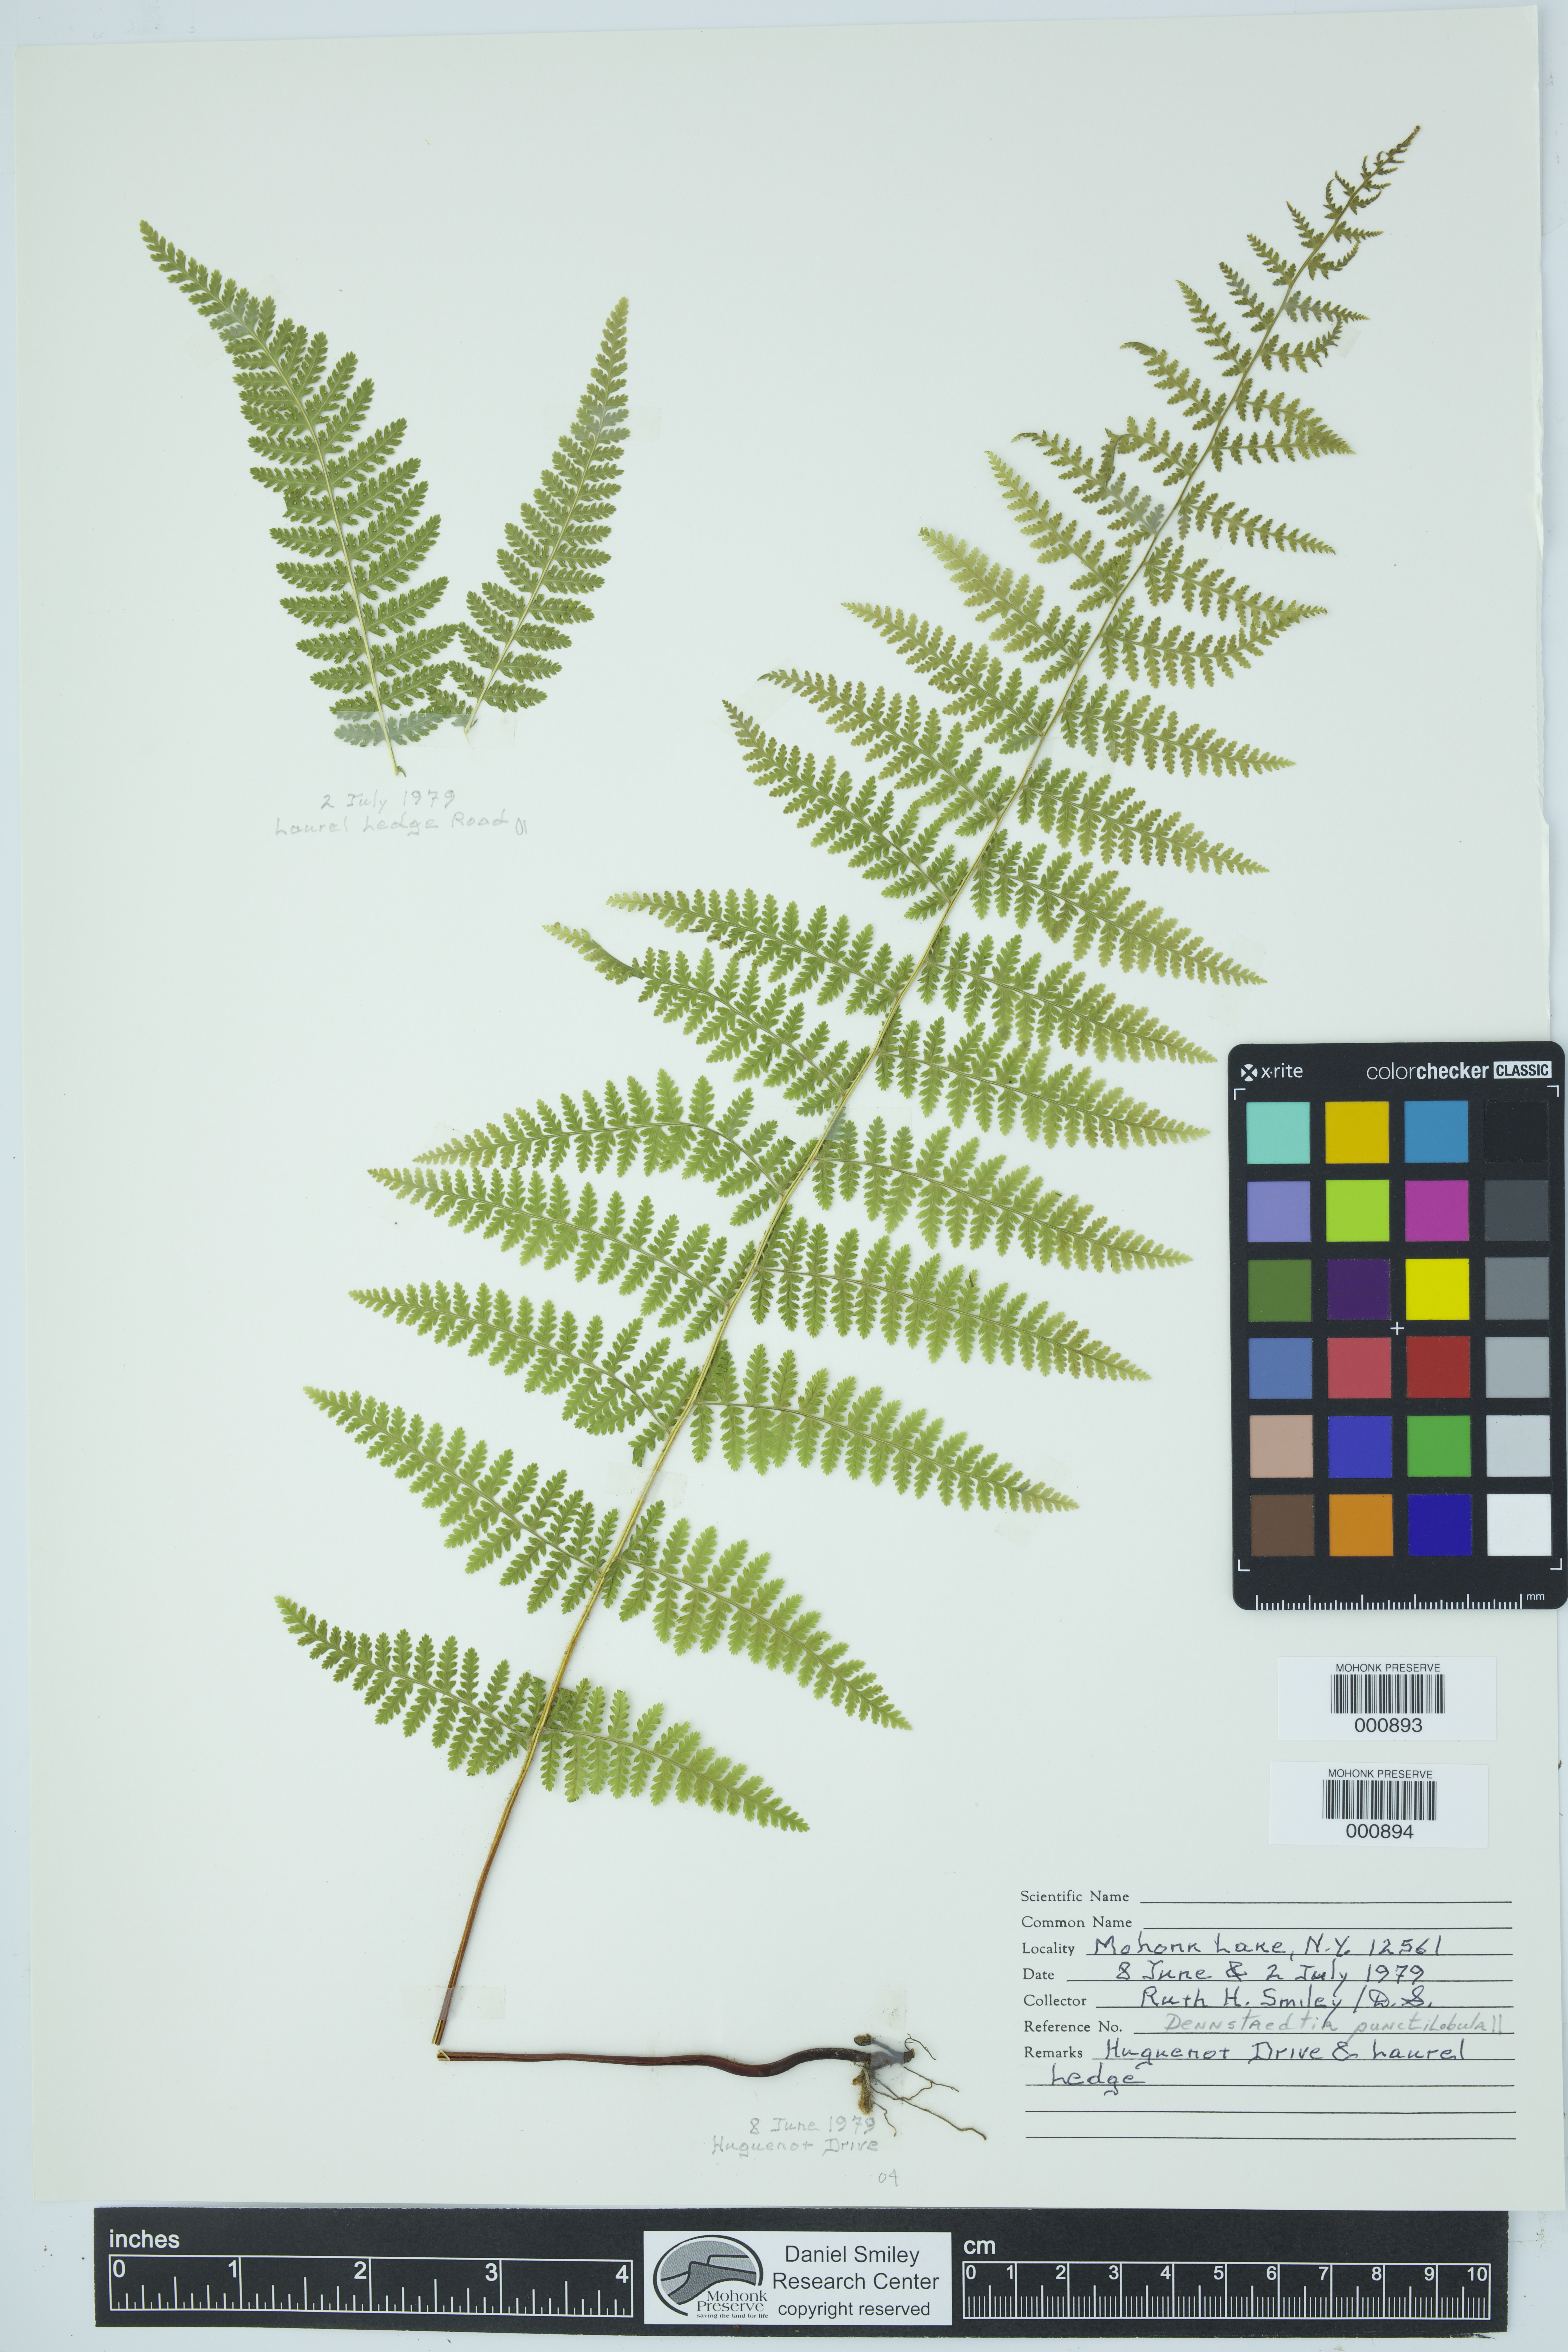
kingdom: Plantae
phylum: Tracheophyta
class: Polypodiopsida
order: Polypodiales
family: Dennstaedtiaceae
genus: Sitobolium
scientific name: Sitobolium punctilobum
